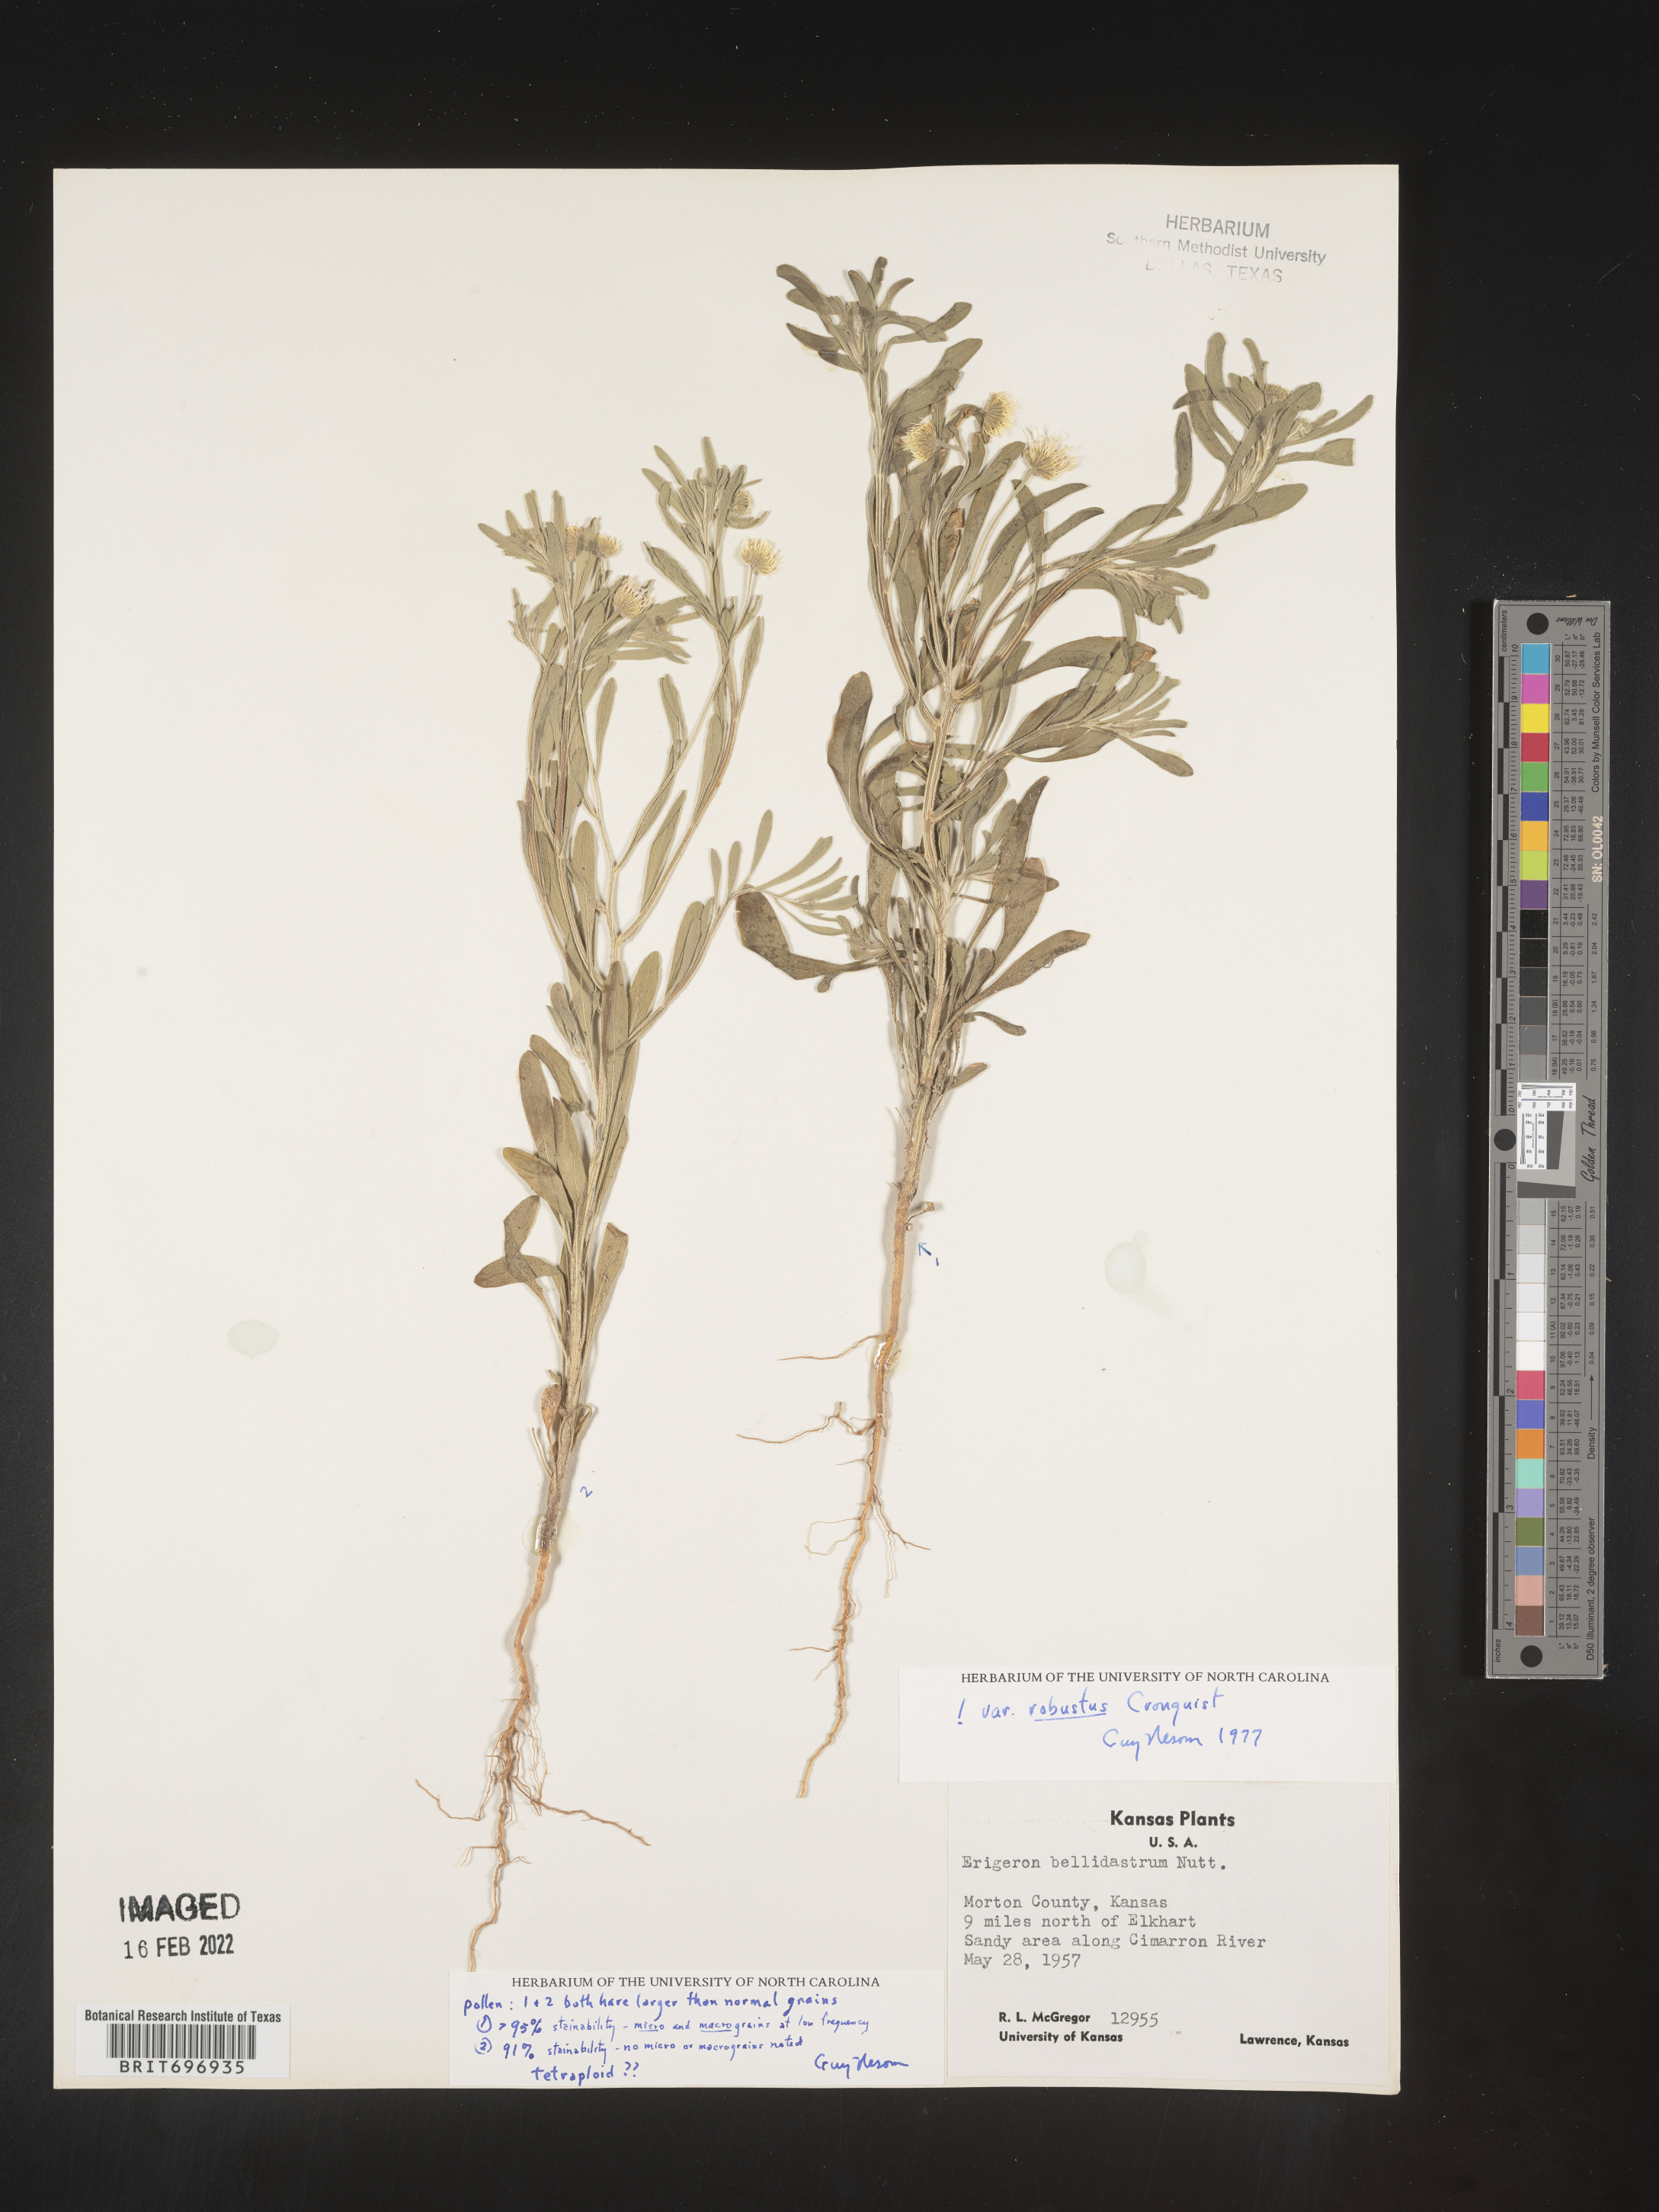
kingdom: Plantae
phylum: Tracheophyta
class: Magnoliopsida
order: Asterales
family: Asteraceae
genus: Erigeron
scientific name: Erigeron bellidiastrum
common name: Sand fleabane
